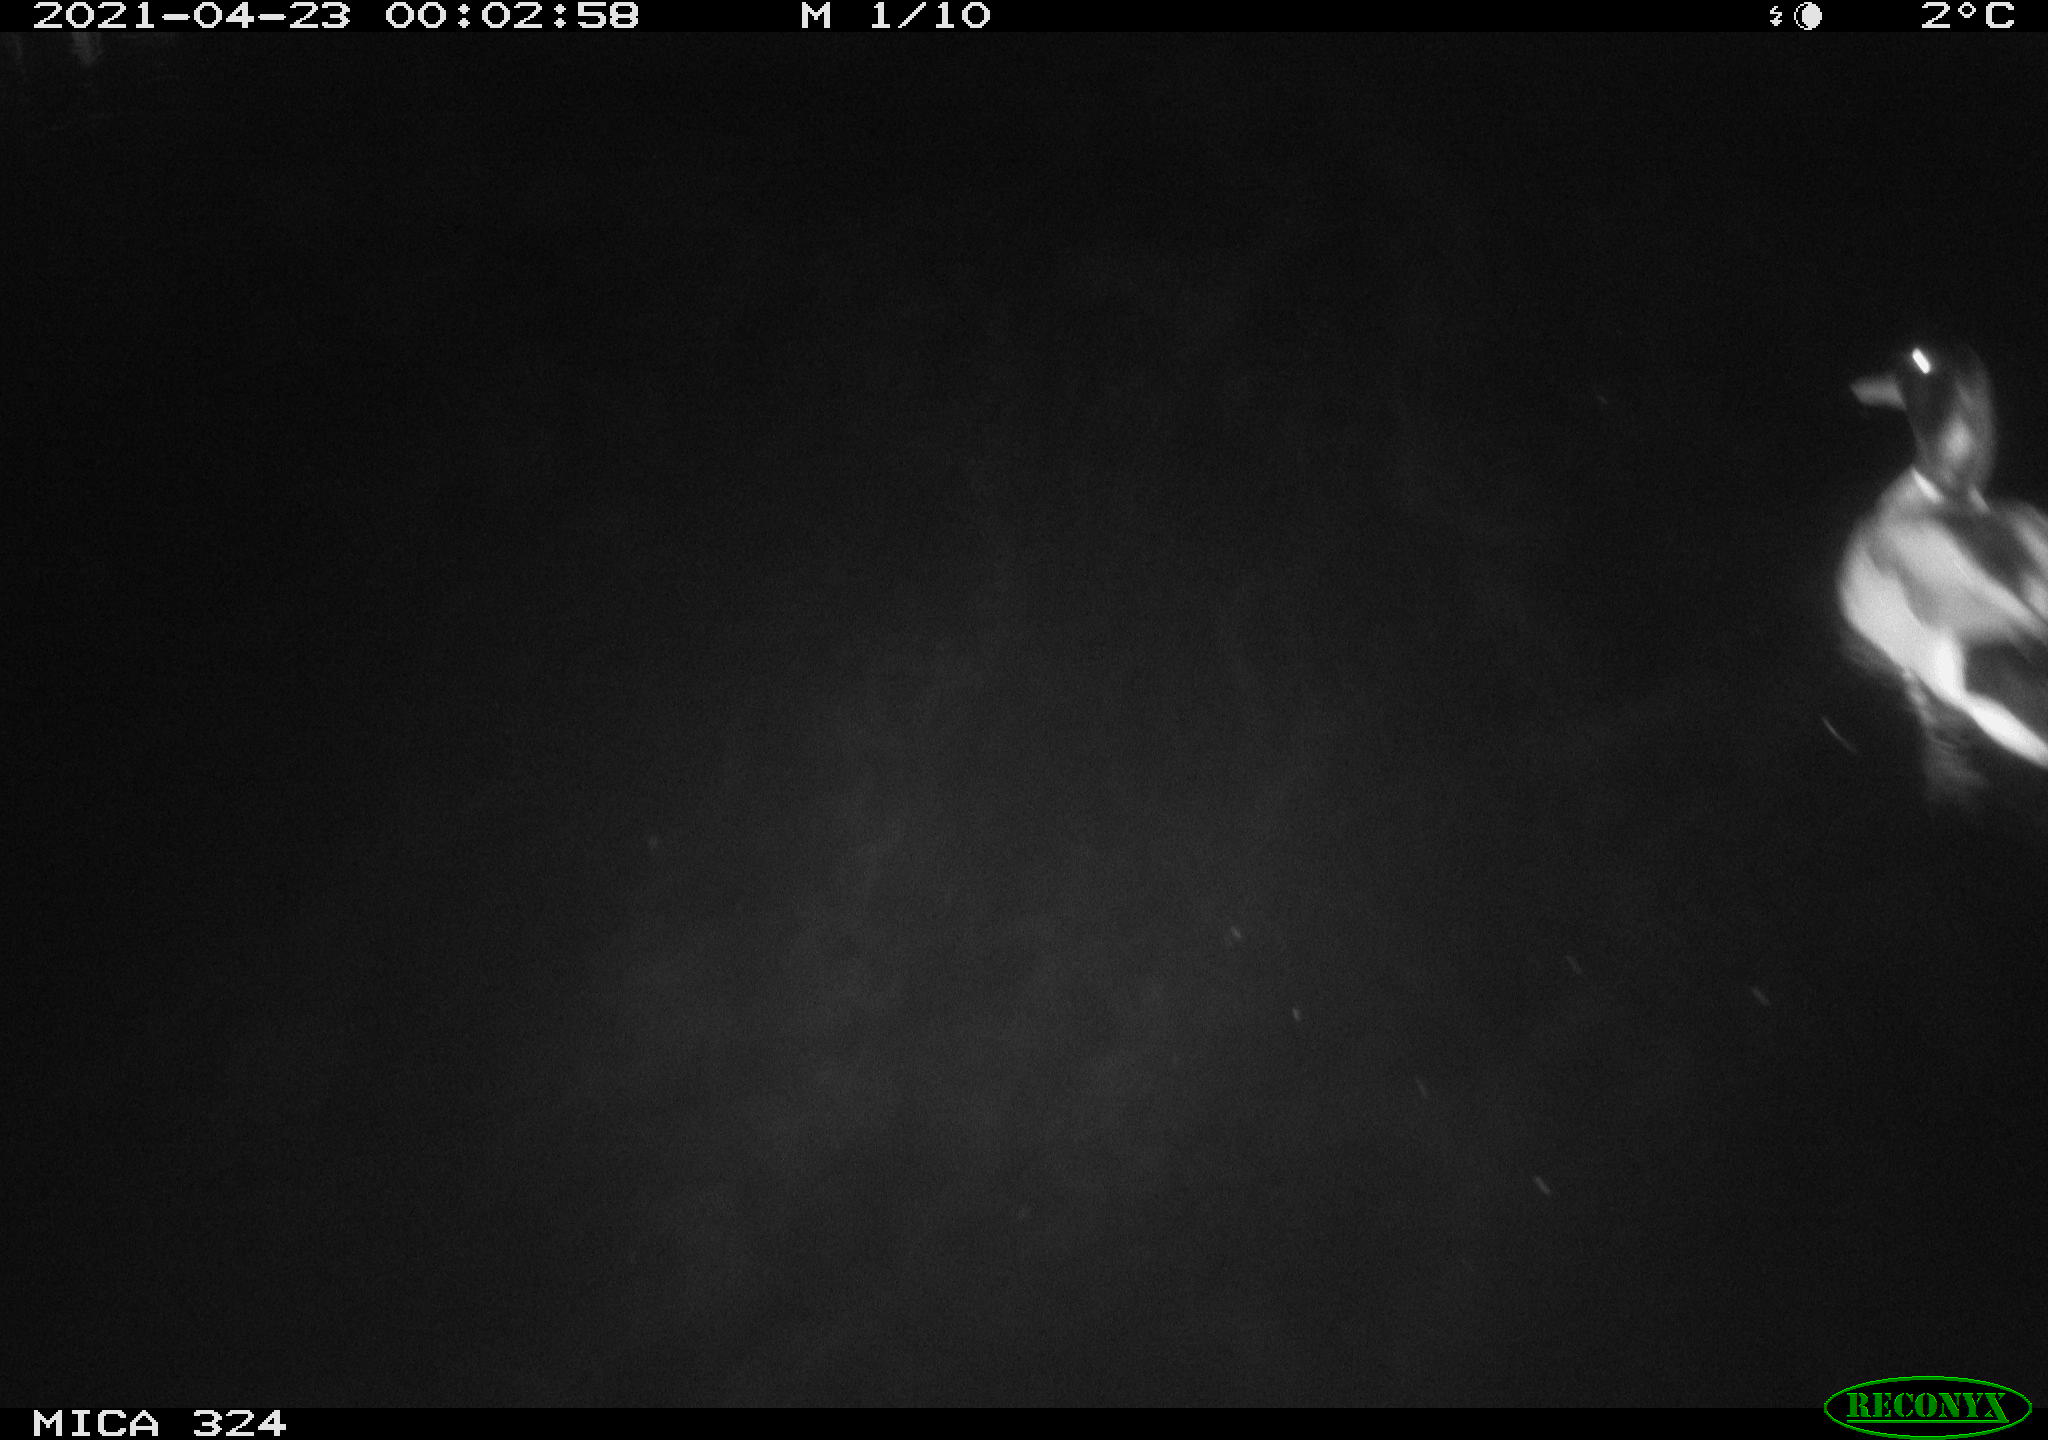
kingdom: Animalia
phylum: Chordata
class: Aves
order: Anseriformes
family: Anatidae
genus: Anas
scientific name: Anas platyrhynchos
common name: Mallard
